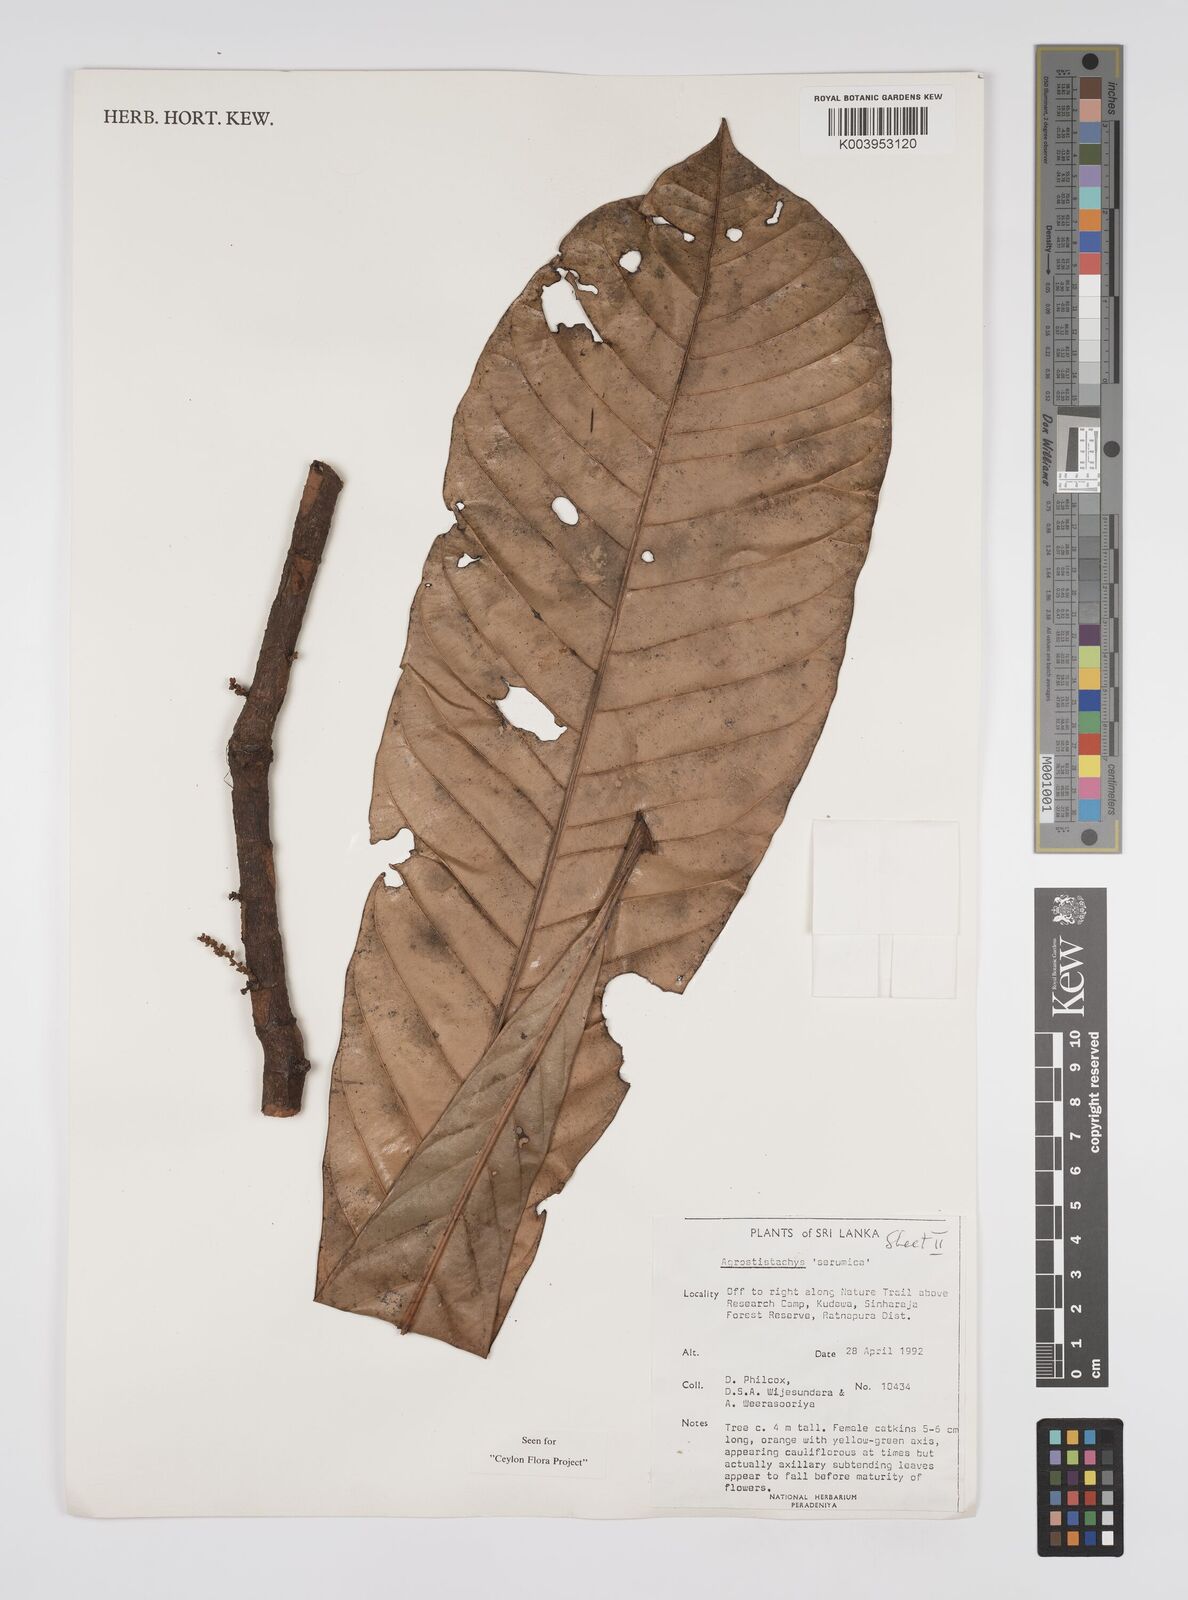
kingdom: Plantae
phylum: Tracheophyta
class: Magnoliopsida
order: Malpighiales
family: Euphorbiaceae
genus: Agrostistachys
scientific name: Agrostistachys borneensis
